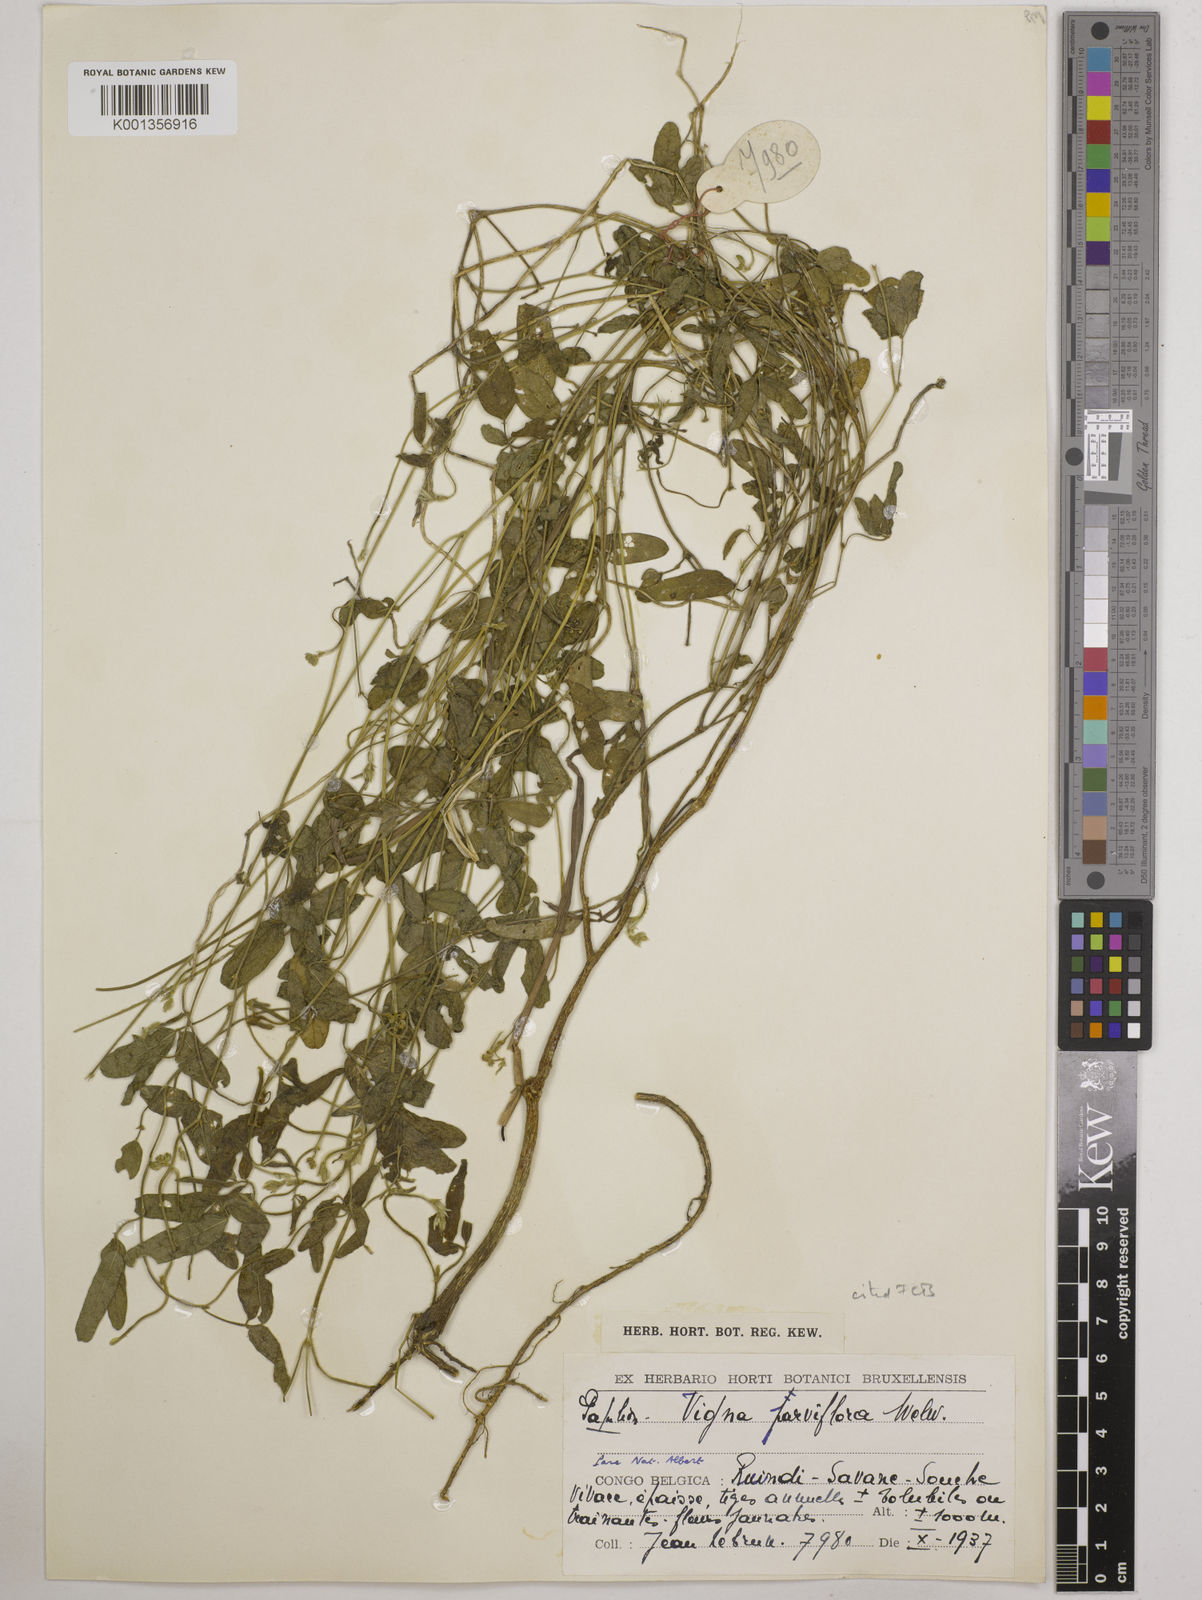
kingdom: Plantae
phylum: Tracheophyta
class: Magnoliopsida
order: Fabales
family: Fabaceae
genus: Vigna
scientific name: Vigna
